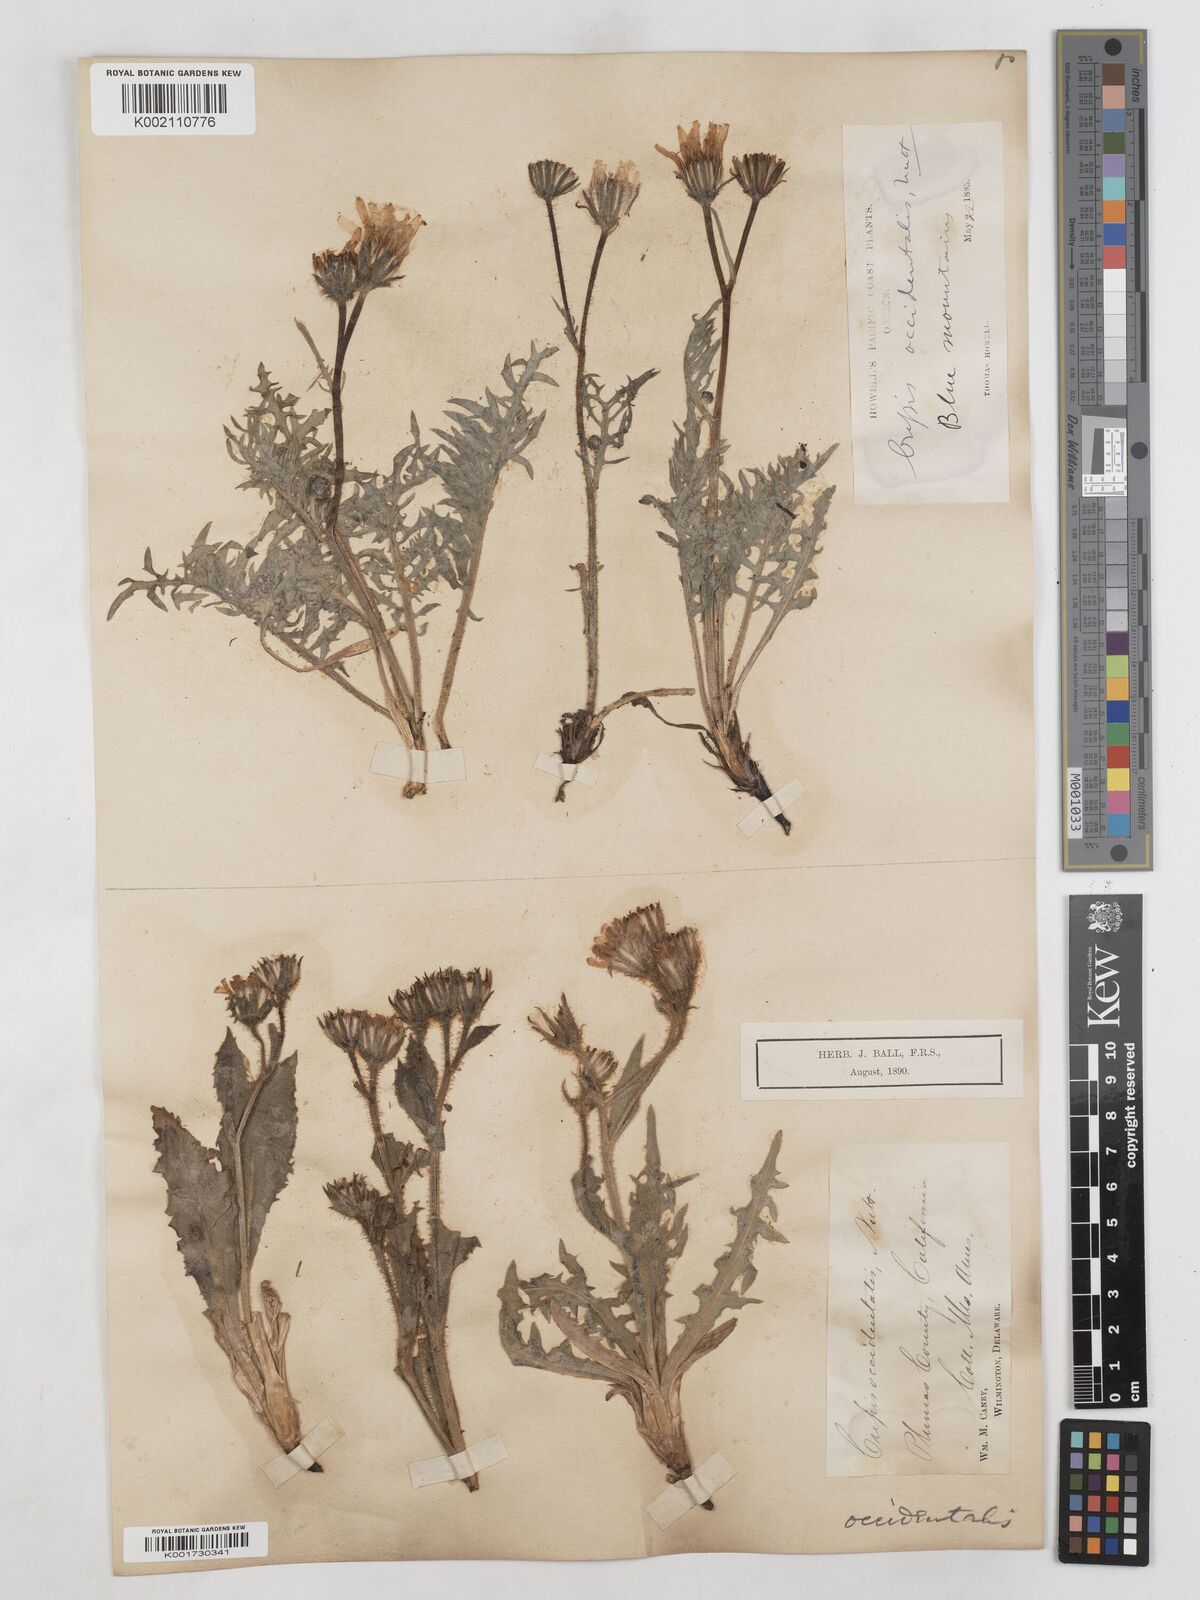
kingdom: Plantae
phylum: Tracheophyta
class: Magnoliopsida
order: Asterales
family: Asteraceae
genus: Crepis
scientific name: Crepis occidentalis
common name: Gray hawk's-beard
